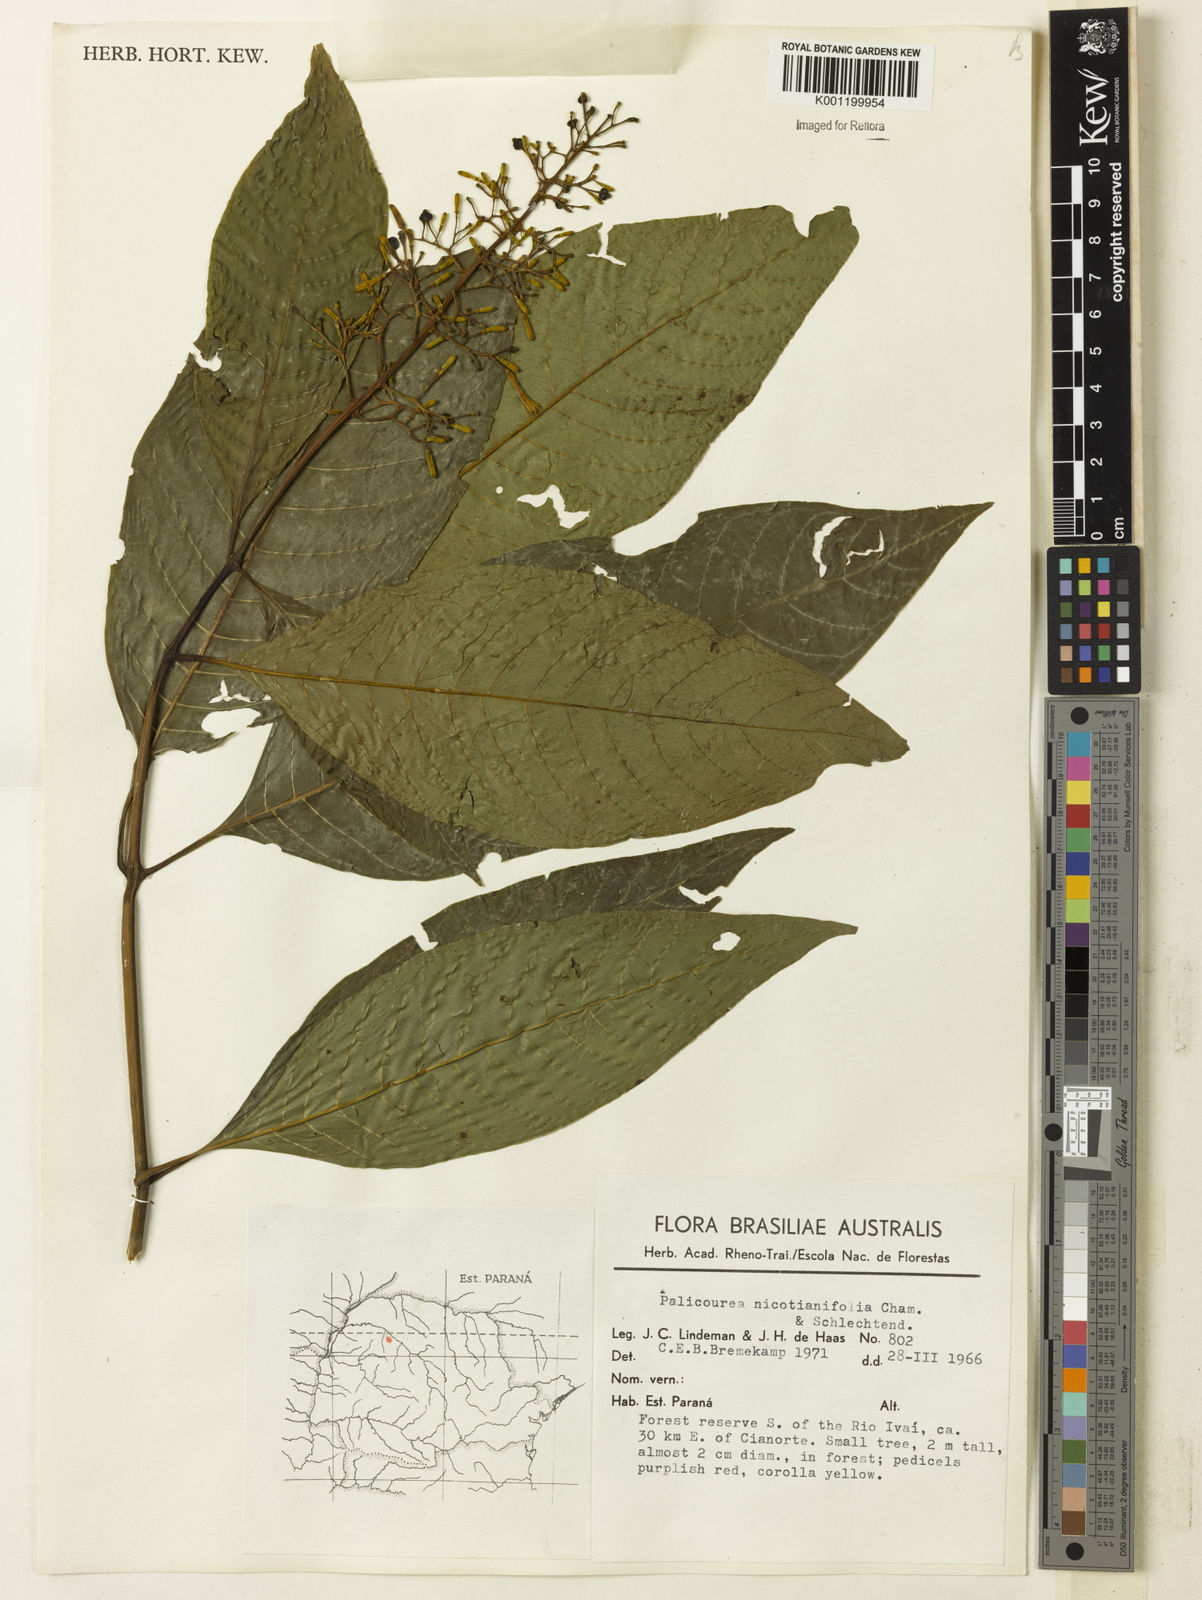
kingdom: Plantae
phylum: Tracheophyta
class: Magnoliopsida
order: Gentianales
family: Rubiaceae
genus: Palicourea
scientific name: Palicourea macrobotrys
